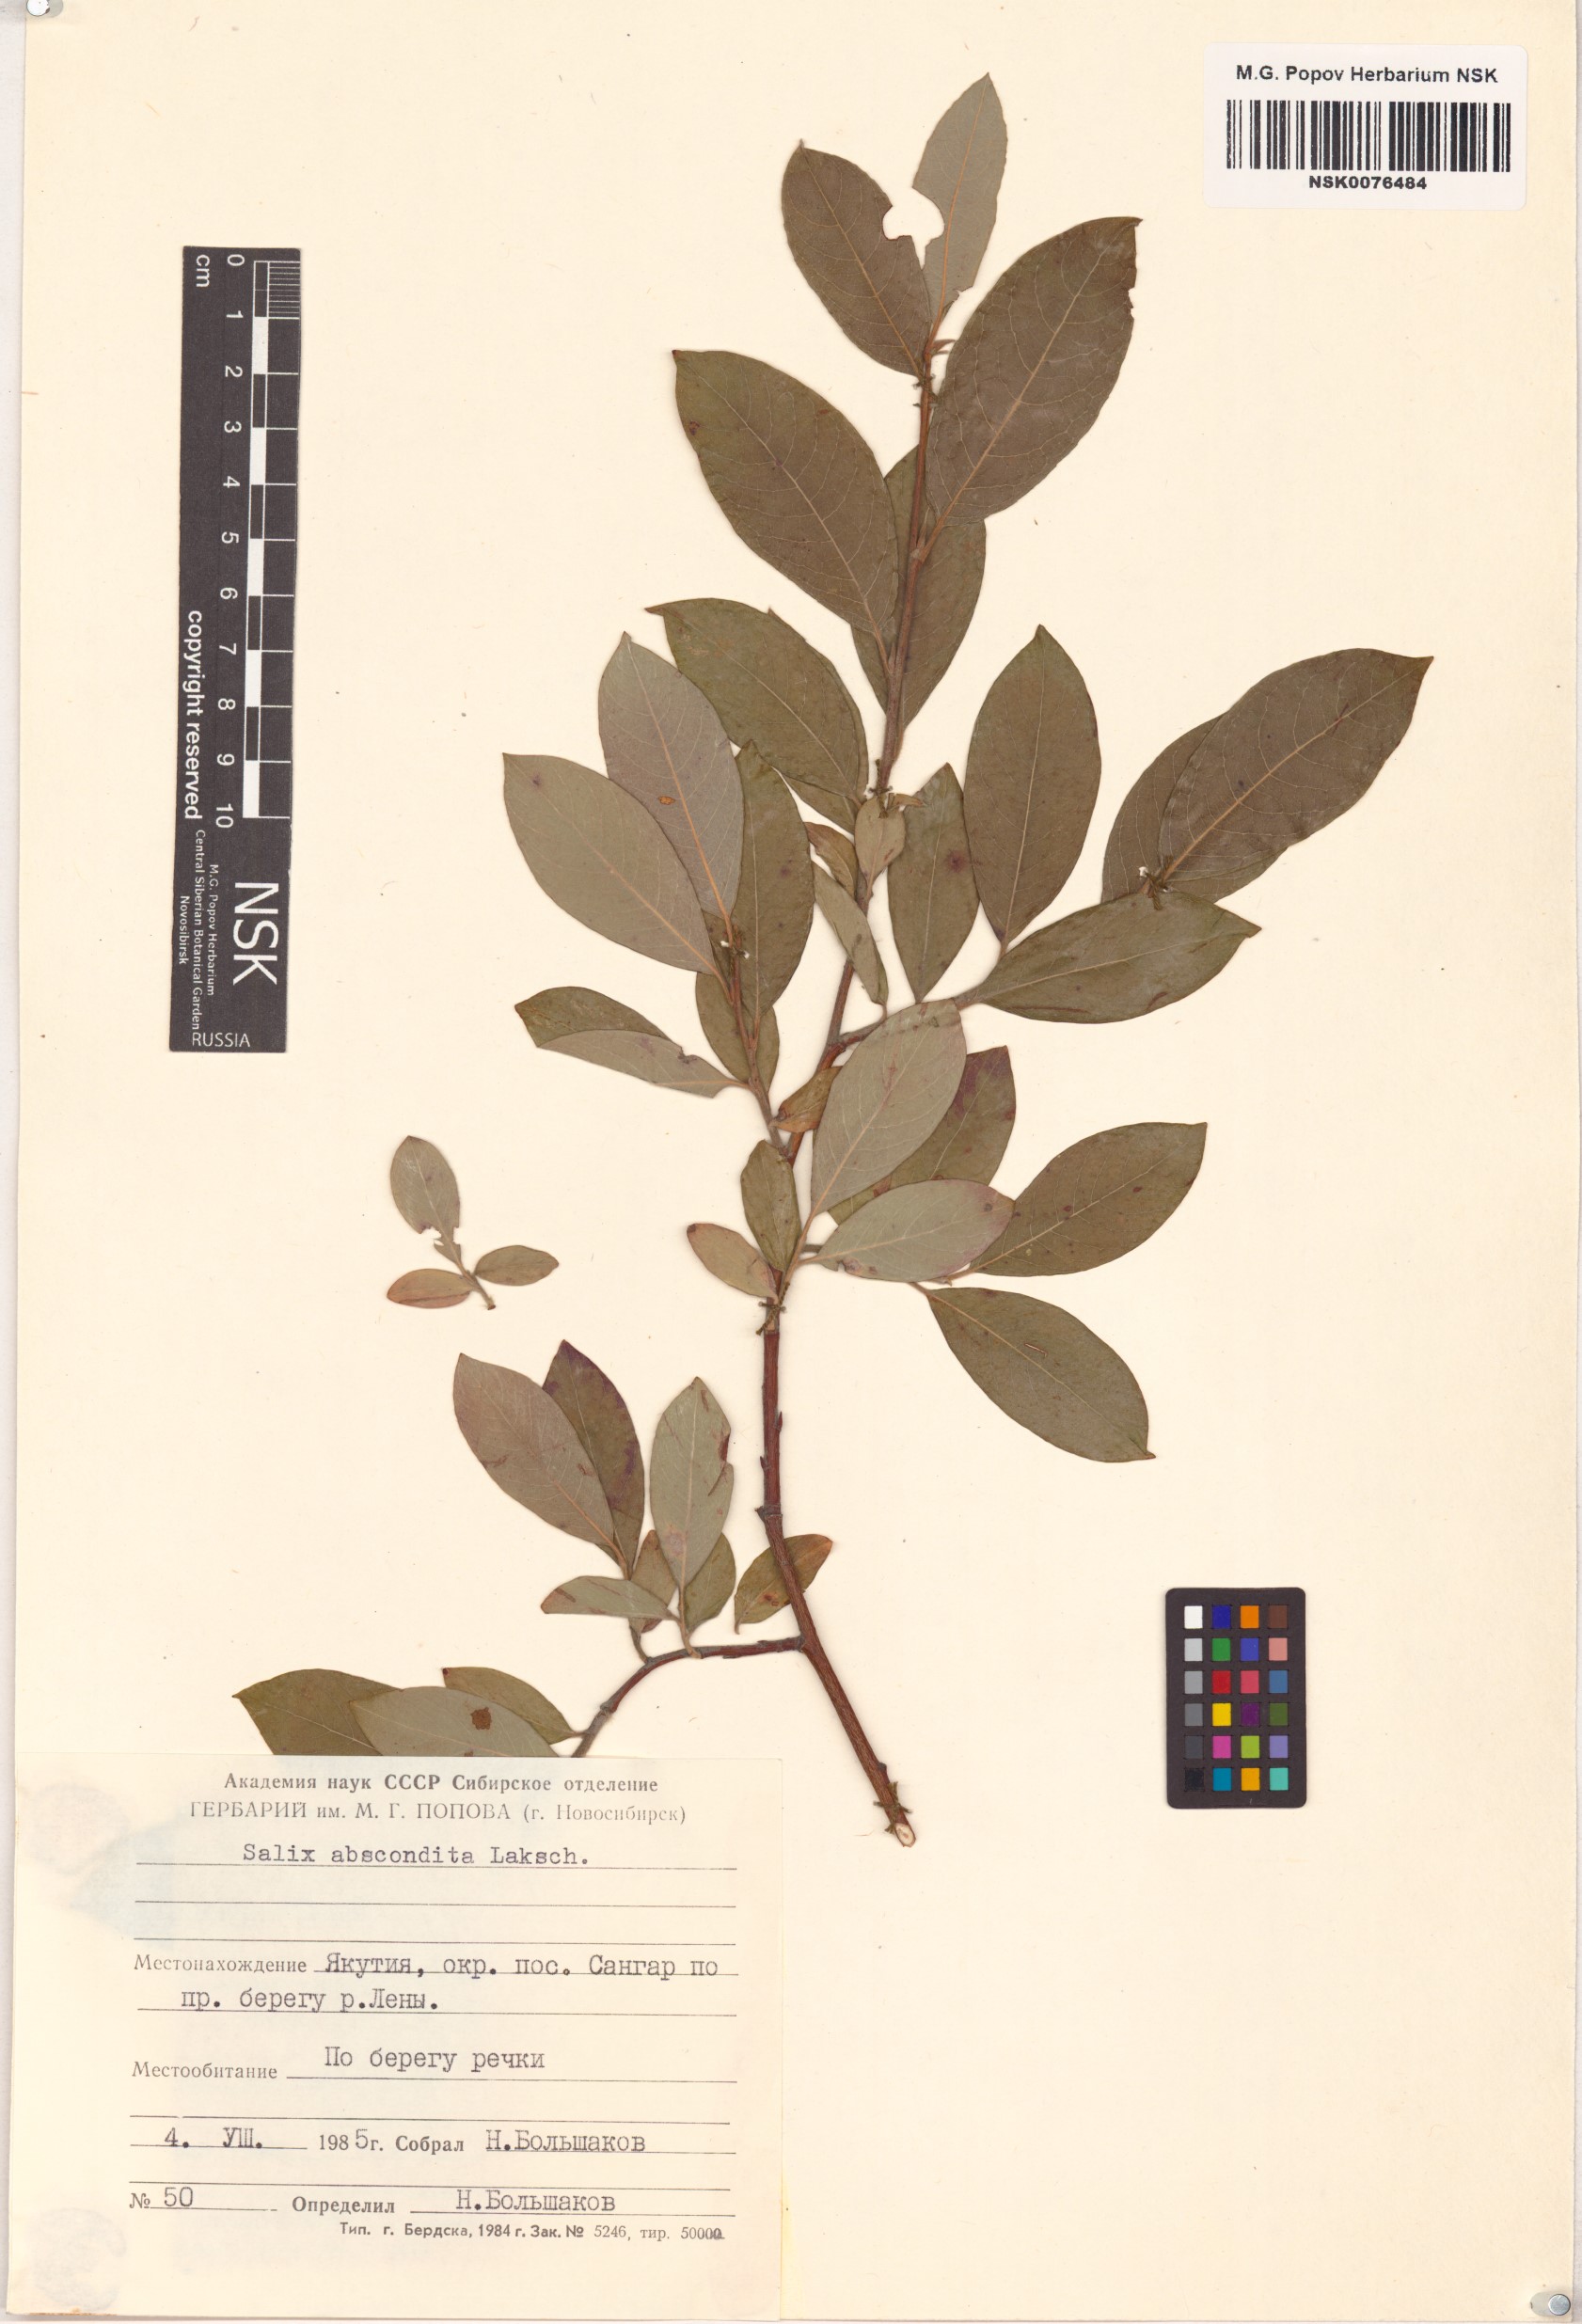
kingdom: Plantae
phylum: Tracheophyta
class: Magnoliopsida
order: Malpighiales
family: Salicaceae
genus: Salix
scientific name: Salix abscondita
